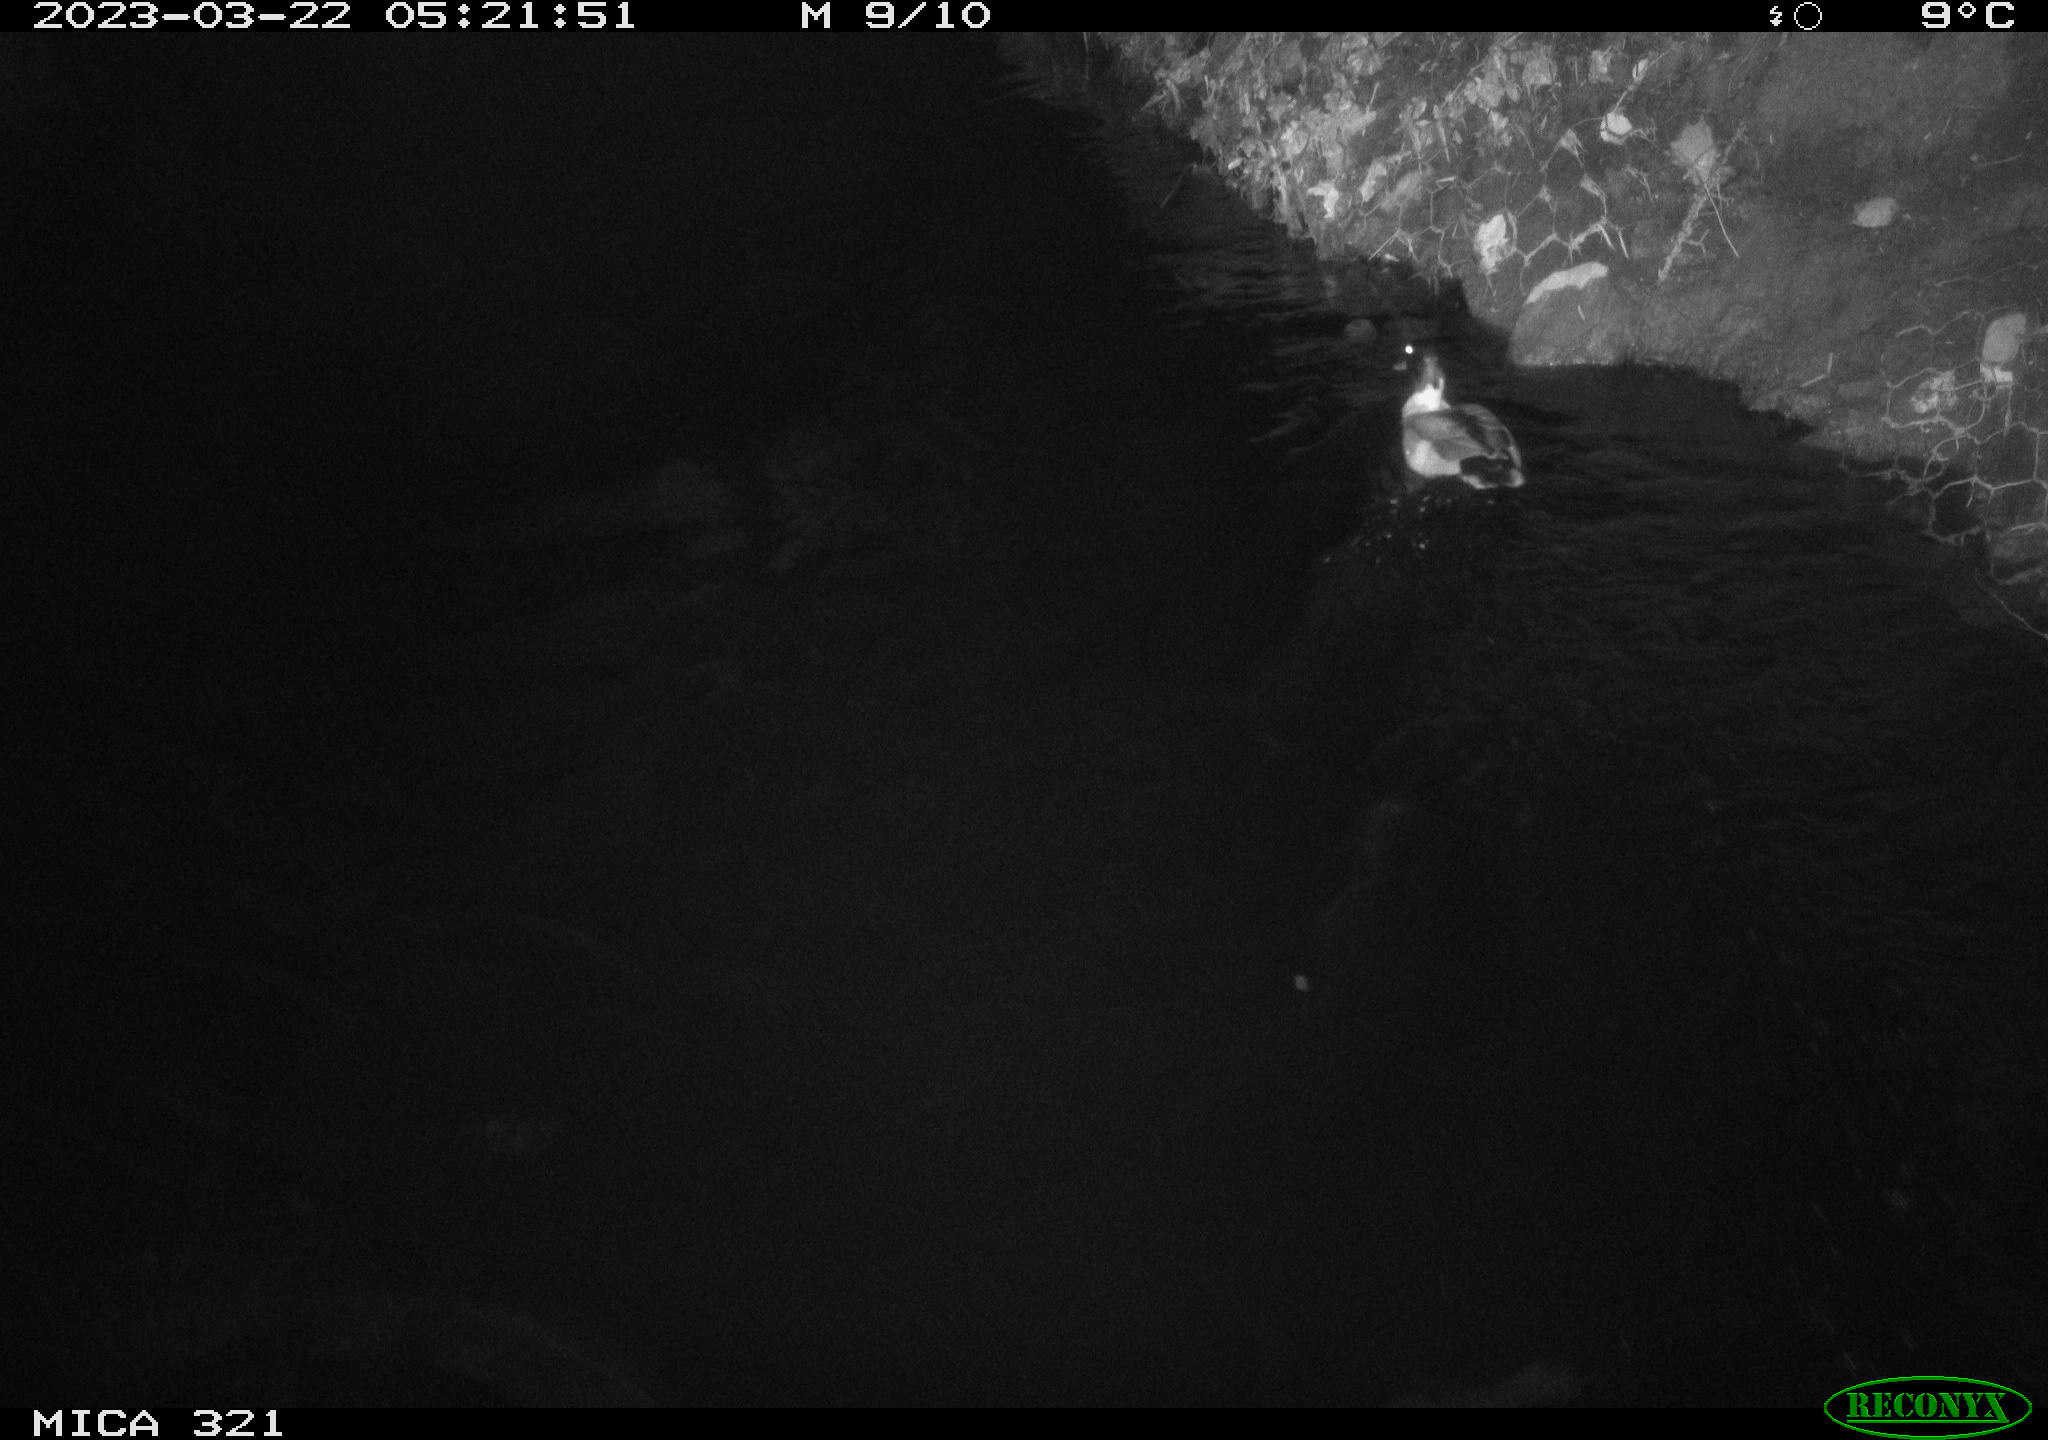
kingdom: Animalia
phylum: Chordata
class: Aves
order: Anseriformes
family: Anatidae
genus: Anas
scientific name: Anas
